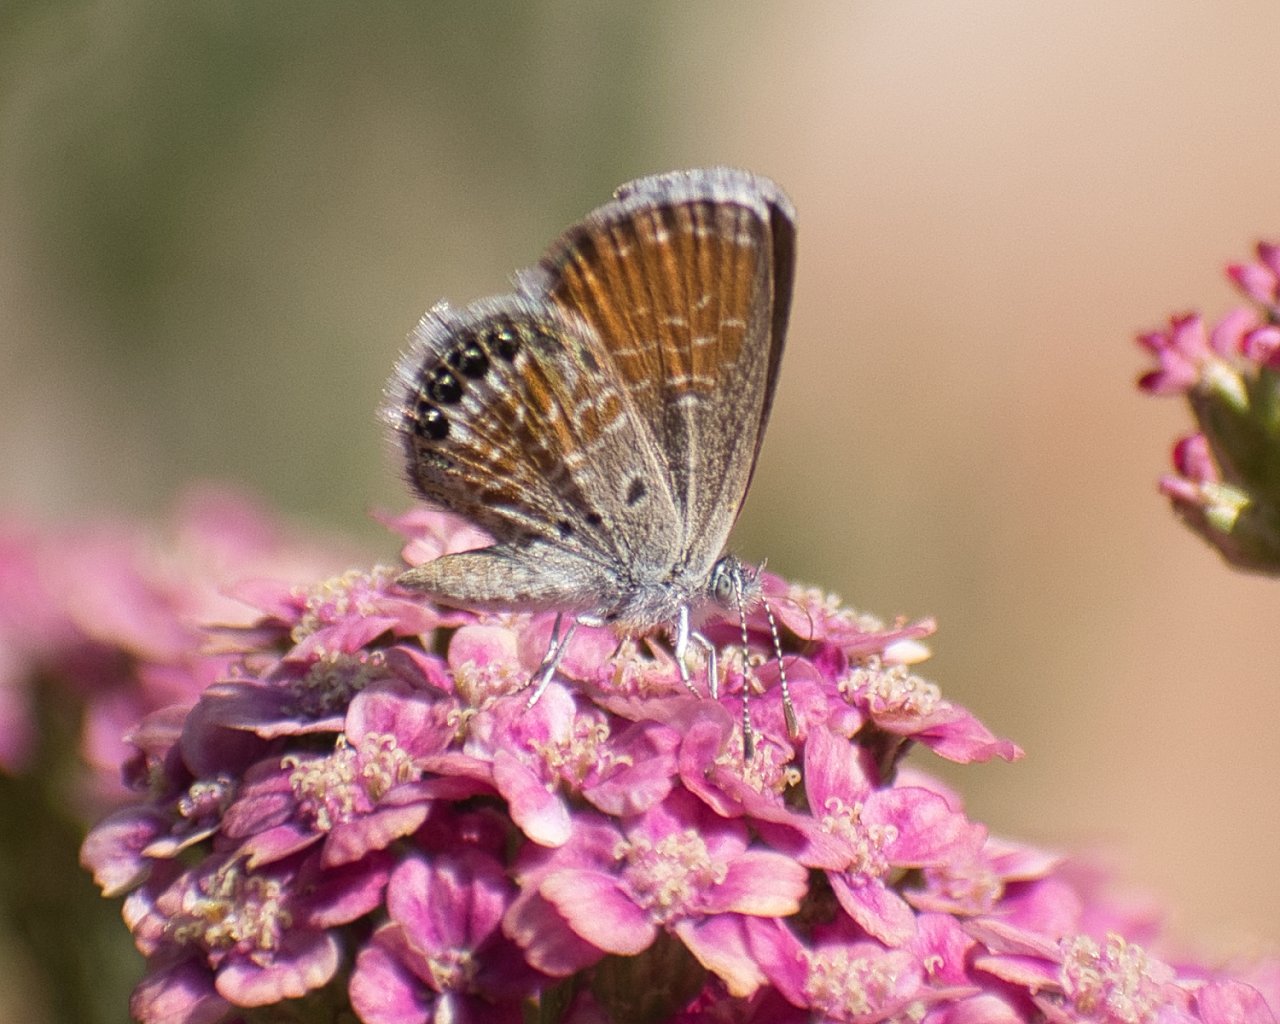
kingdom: Animalia
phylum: Arthropoda
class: Insecta
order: Lepidoptera
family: Lycaenidae
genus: Brephidium
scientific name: Brephidium exilis
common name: Western Pygmy-Blue
